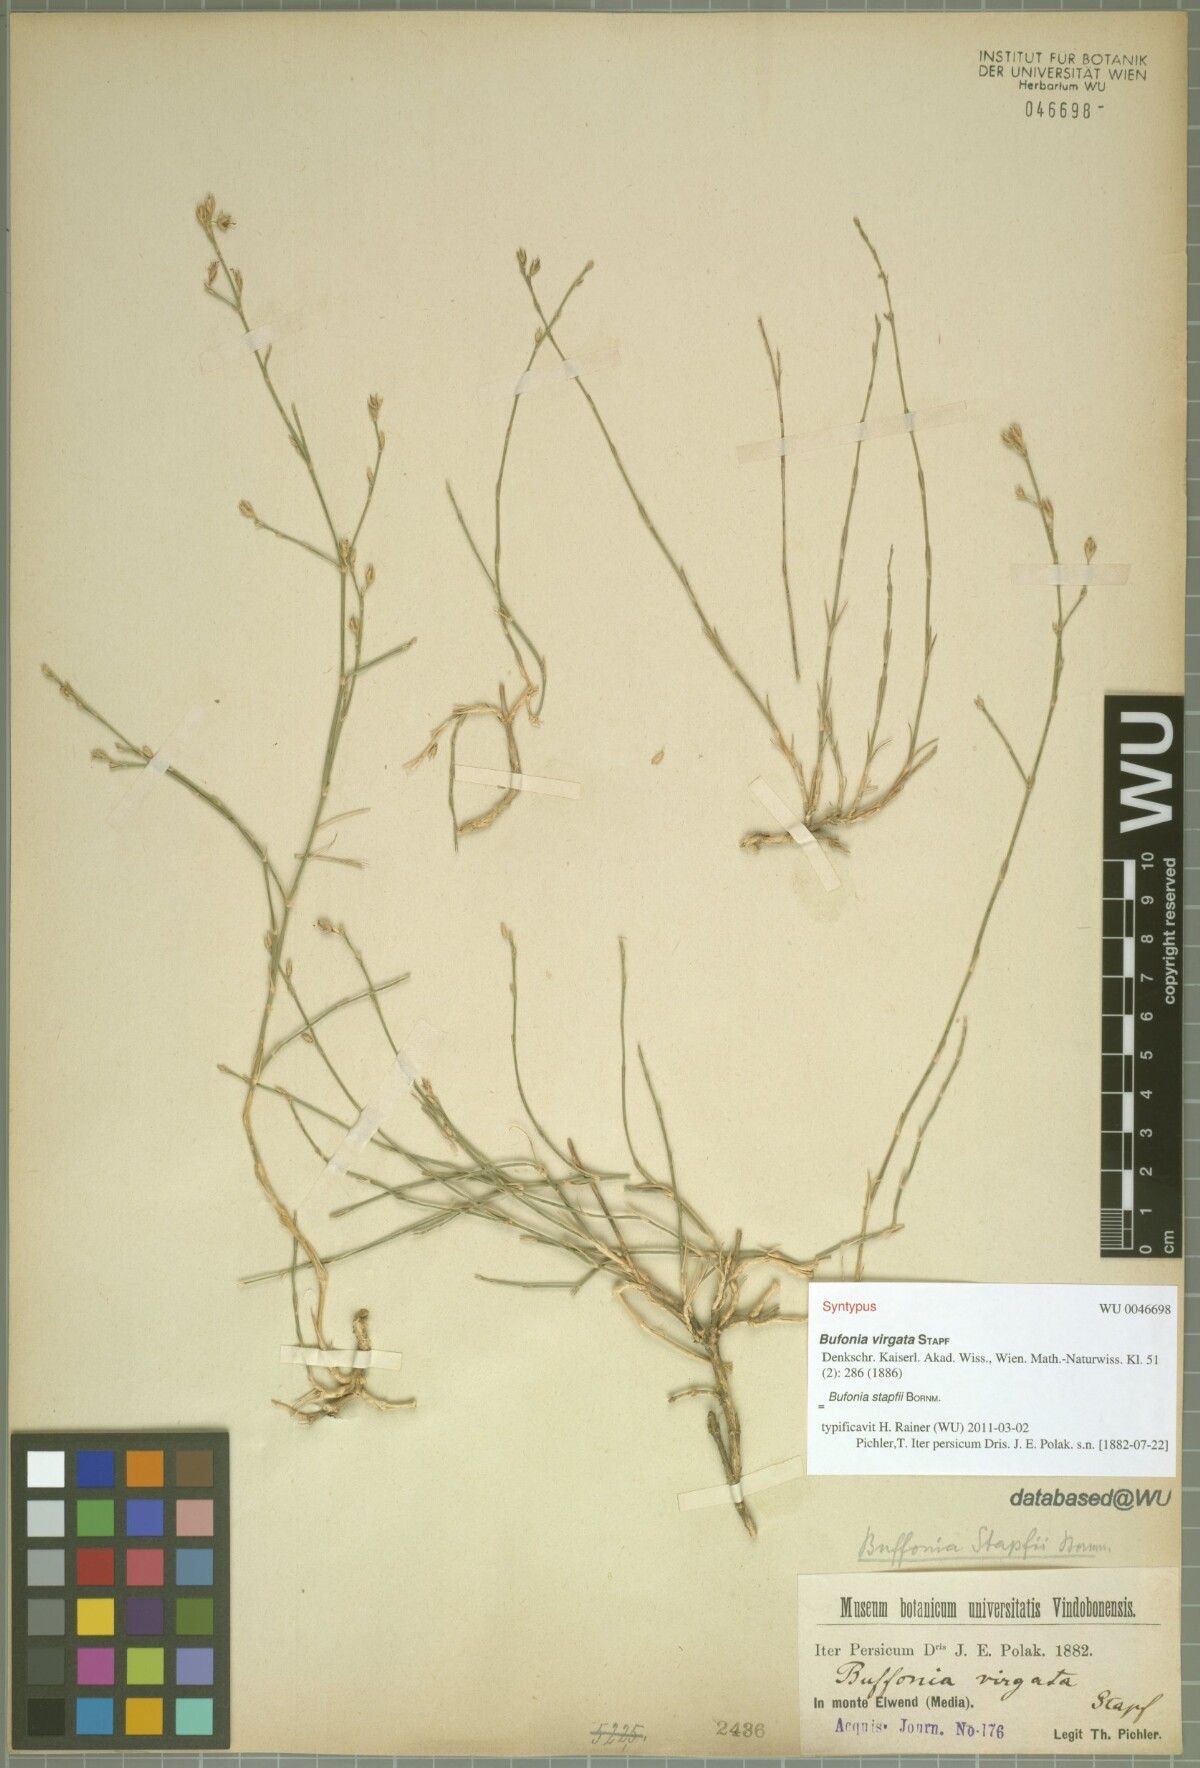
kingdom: Plantae
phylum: Tracheophyta
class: Magnoliopsida
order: Caryophyllales
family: Caryophyllaceae
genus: Bufonia
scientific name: Bufonia stapfii
